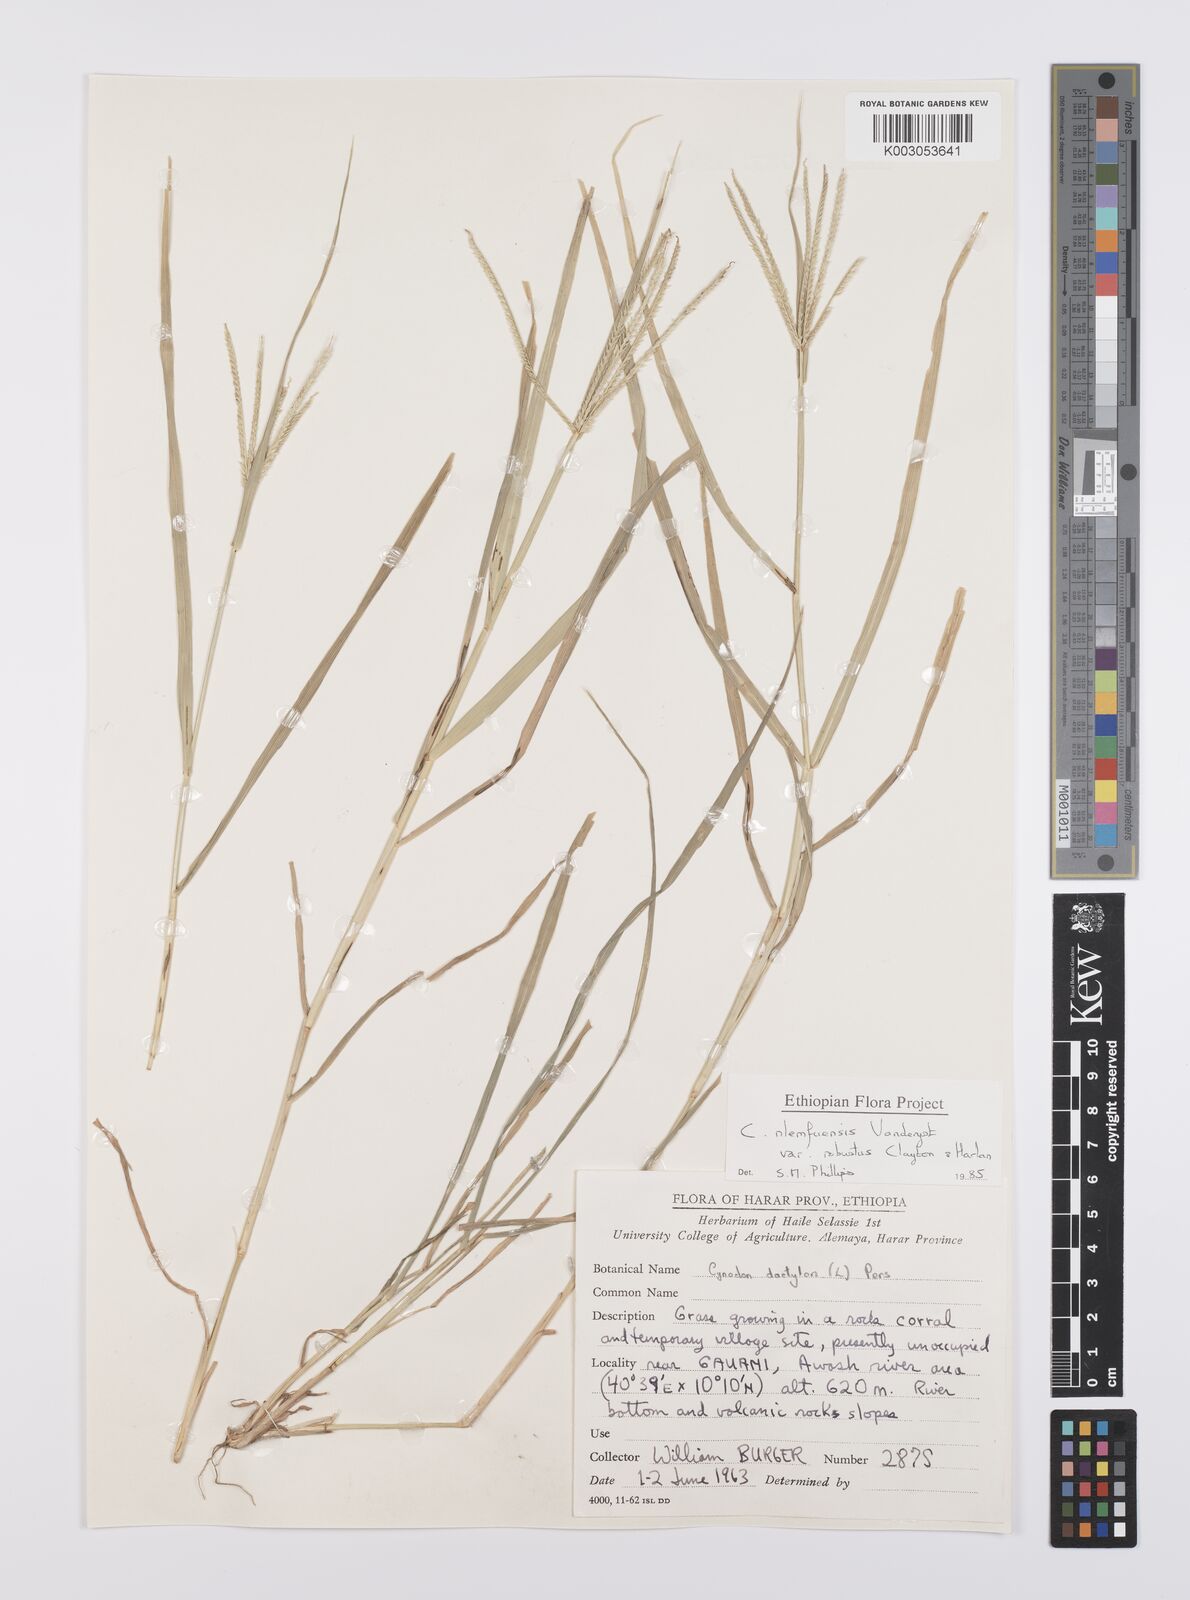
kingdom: Plantae
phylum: Tracheophyta
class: Liliopsida
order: Poales
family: Poaceae
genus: Cynodon
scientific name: Cynodon nlemfuensis
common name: African bermudagrass
